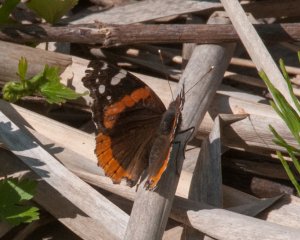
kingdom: Animalia
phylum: Arthropoda
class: Insecta
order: Lepidoptera
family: Nymphalidae
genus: Vanessa
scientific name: Vanessa atalanta
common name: Red Admiral
